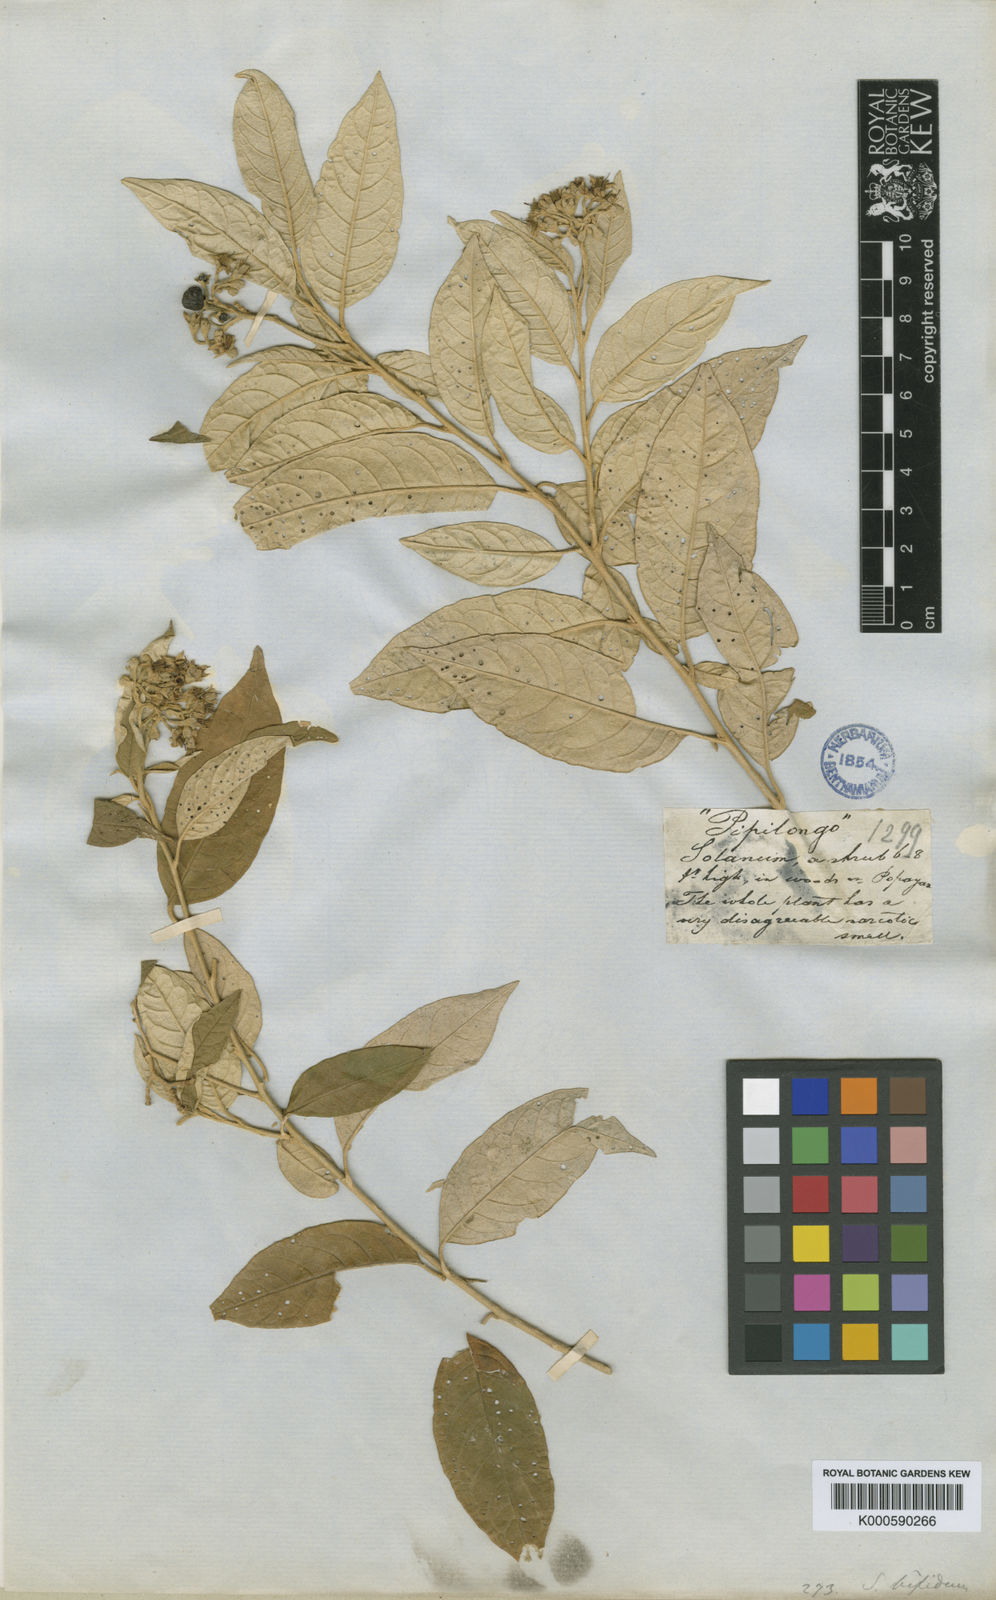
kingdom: Plantae
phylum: Tracheophyta
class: Magnoliopsida
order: Solanales
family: Solanaceae
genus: Solanum
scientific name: Solanum argenteum
